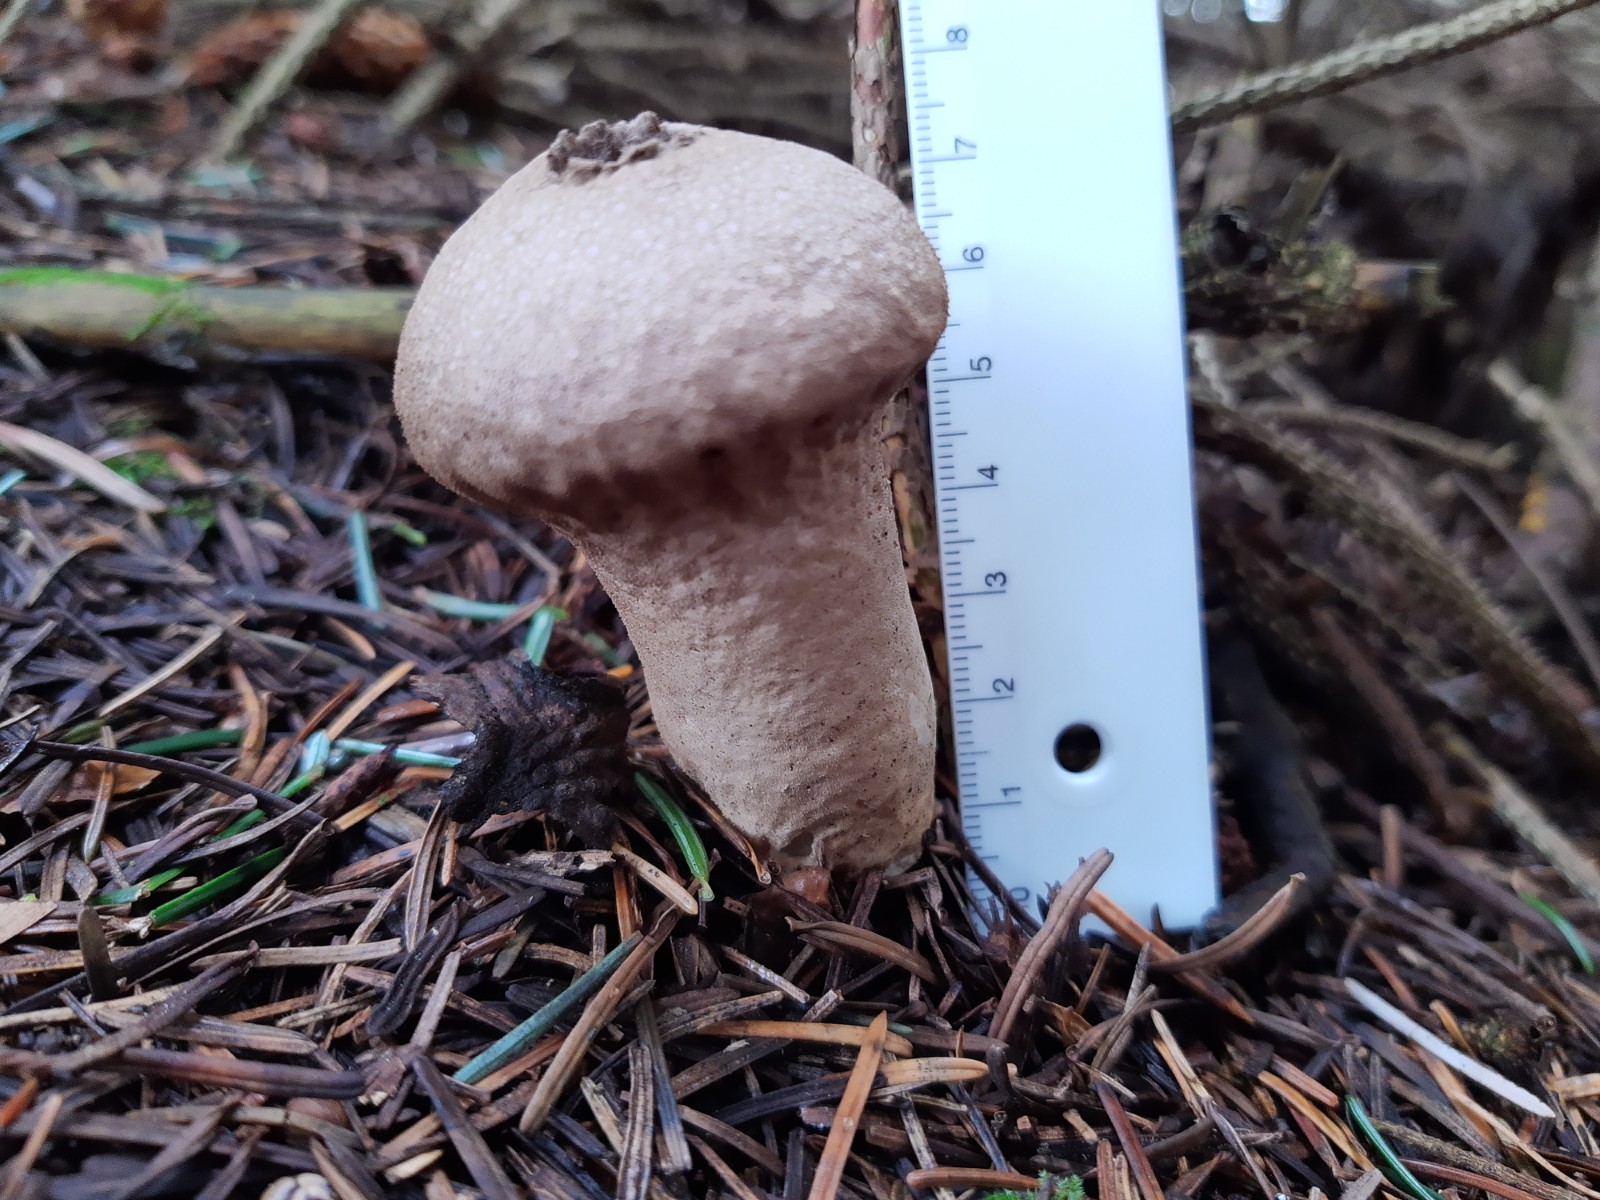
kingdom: Fungi
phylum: Basidiomycota
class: Agaricomycetes
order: Agaricales
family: Lycoperdaceae
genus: Lycoperdon
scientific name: Lycoperdon perlatum
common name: krystal-støvbold
